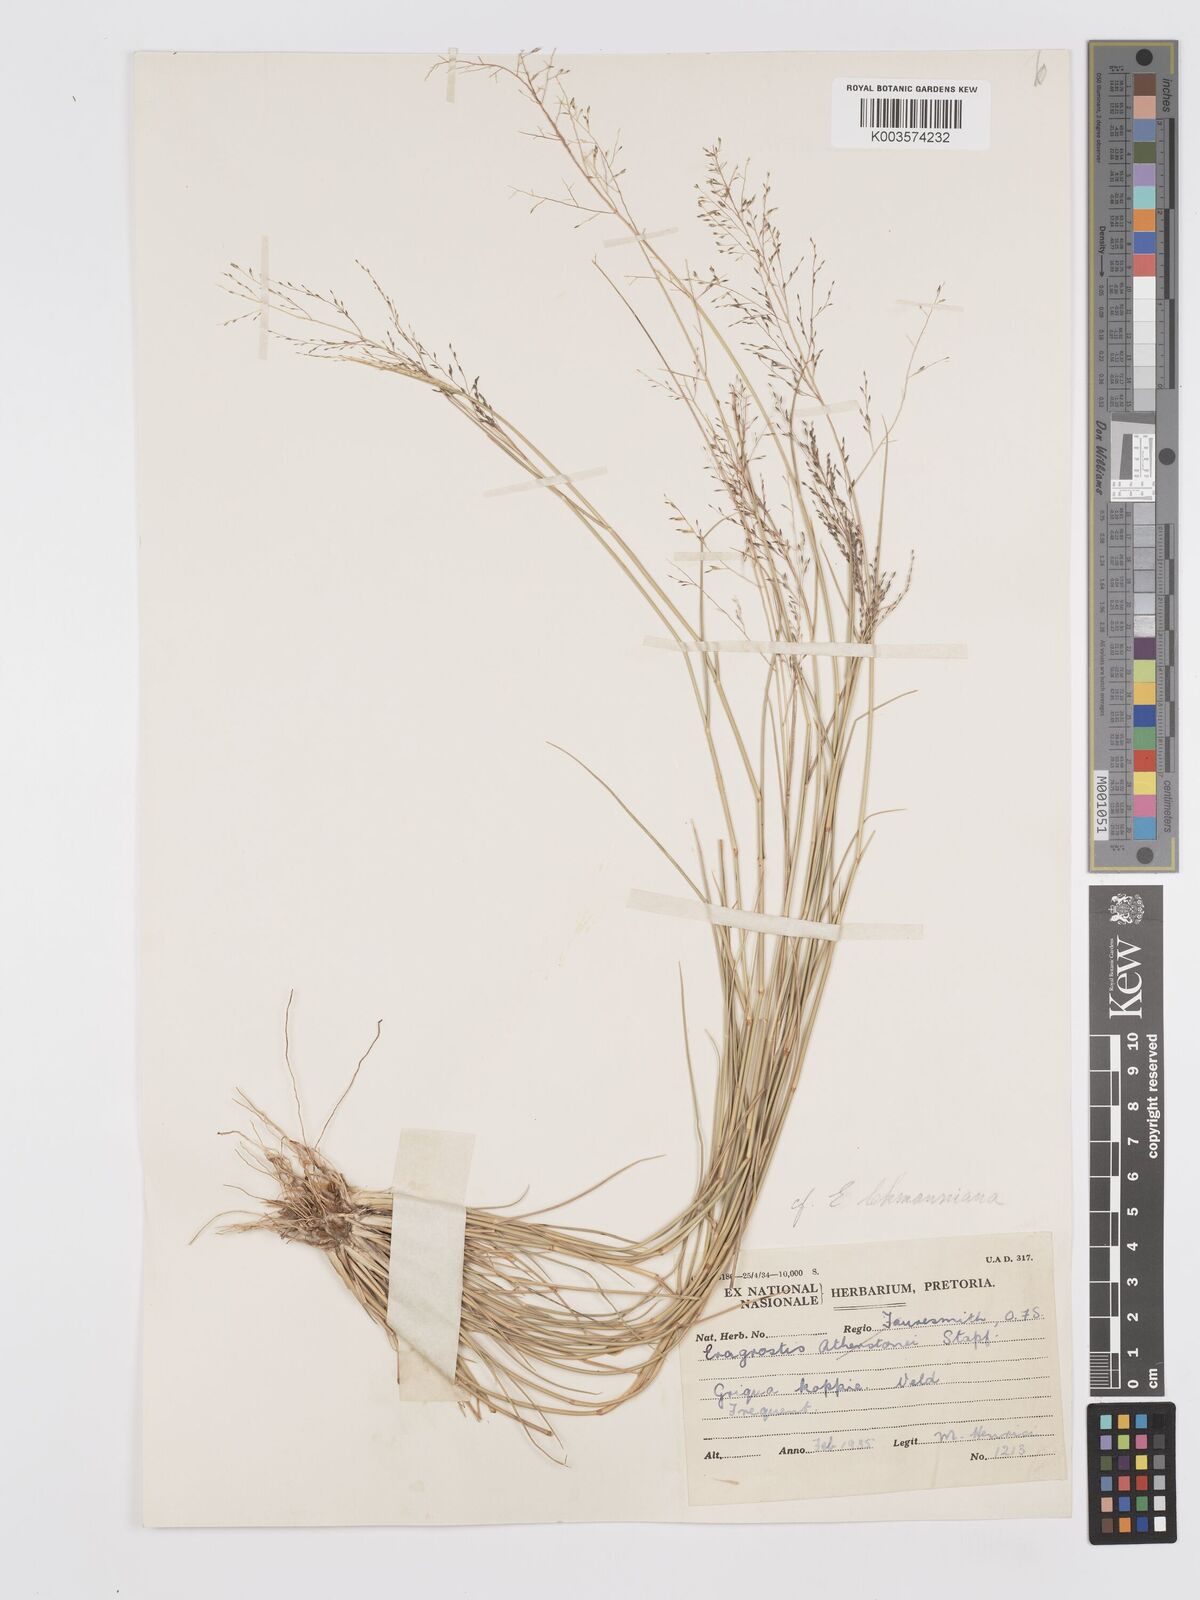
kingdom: Plantae
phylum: Tracheophyta
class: Liliopsida
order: Poales
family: Poaceae
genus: Eragrostis
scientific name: Eragrostis micrantha
